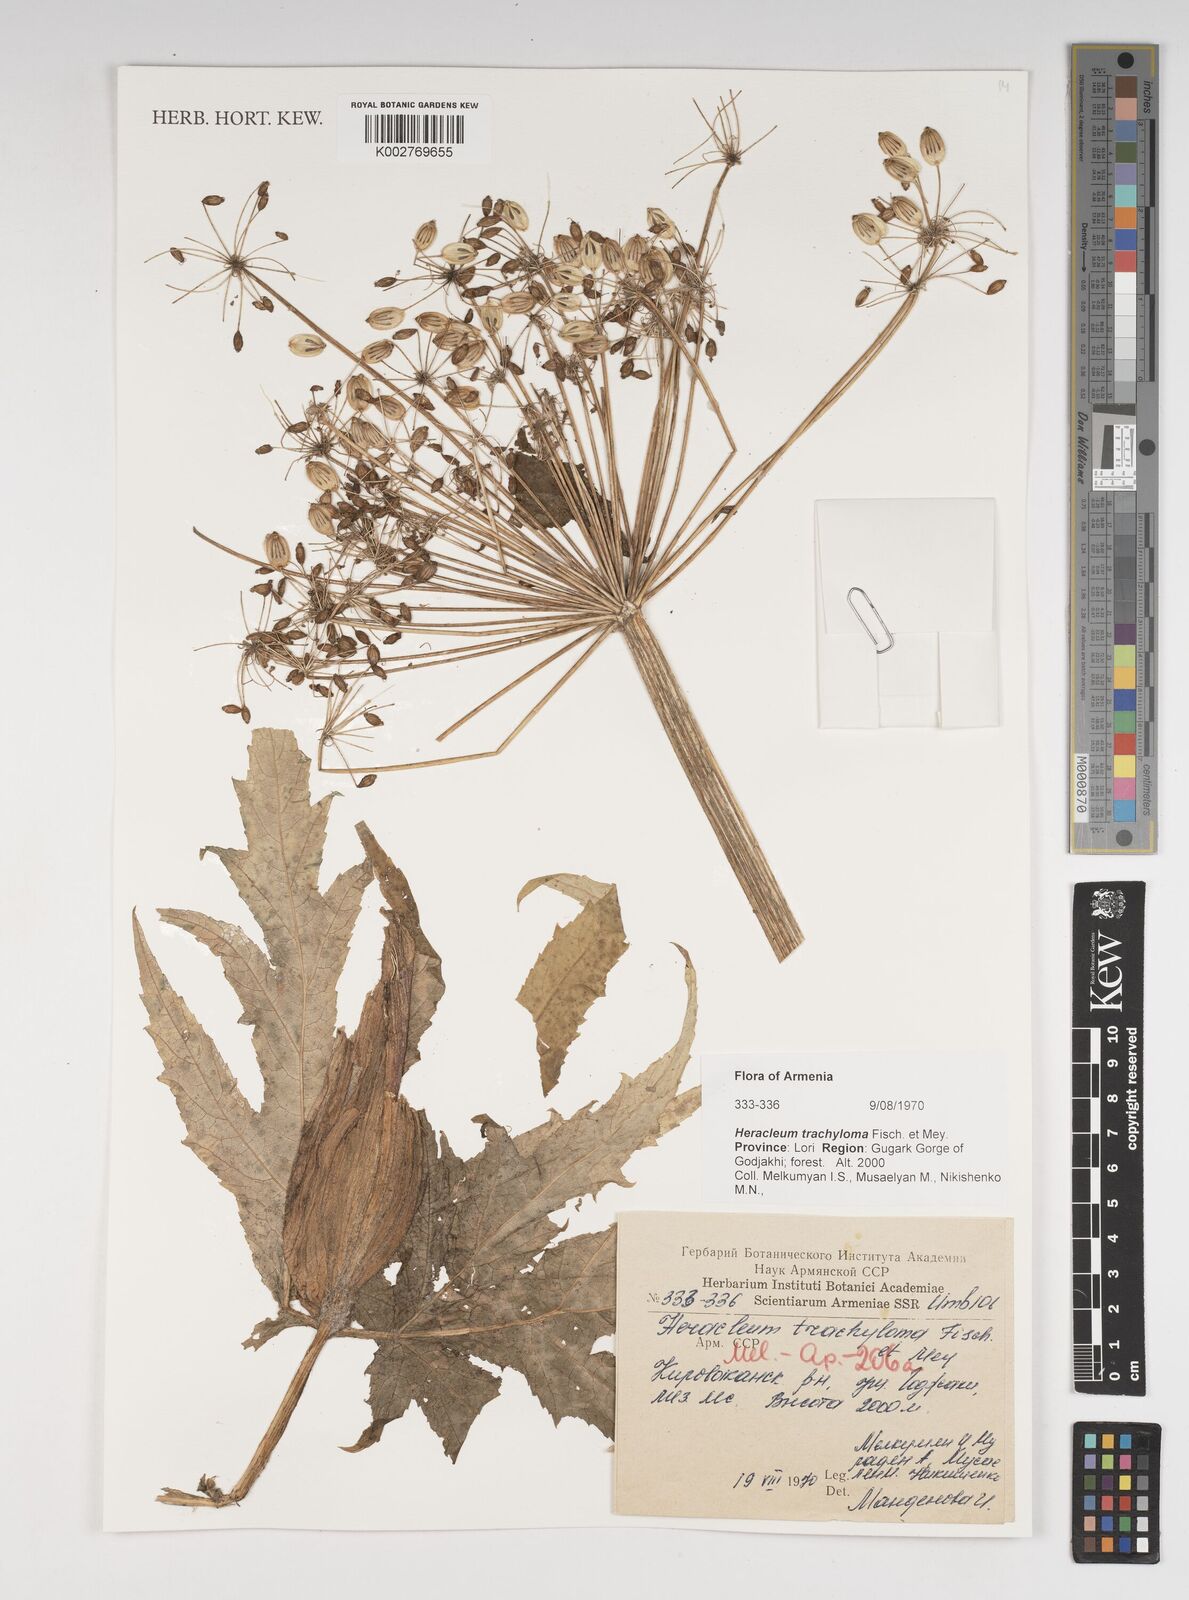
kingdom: Plantae
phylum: Tracheophyta
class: Magnoliopsida
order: Apiales
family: Apiaceae
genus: Heracleum
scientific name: Heracleum trachyloma
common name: Downy cow-parsnip
